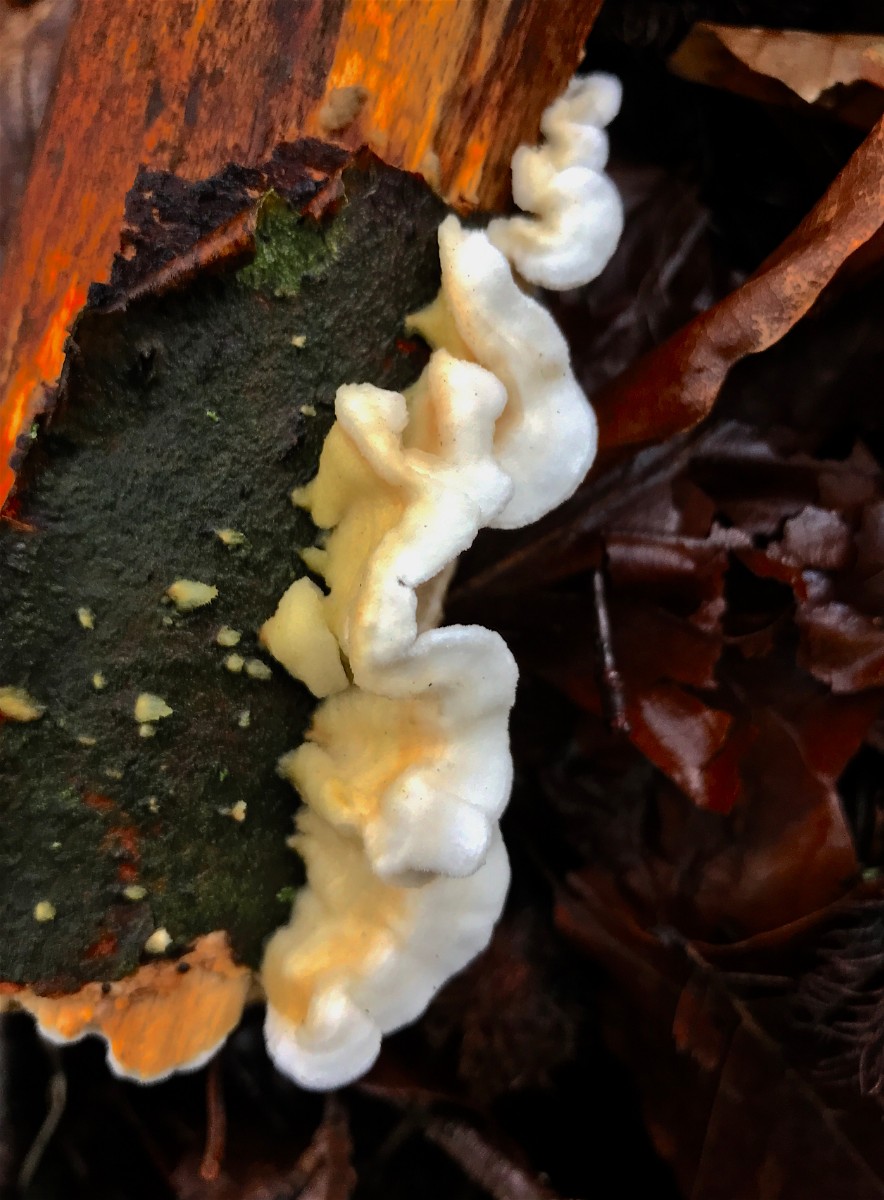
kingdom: Fungi
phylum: Basidiomycota
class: Agaricomycetes
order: Polyporales
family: Irpicaceae
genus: Byssomerulius
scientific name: Byssomerulius corium
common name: læder-åresvamp
